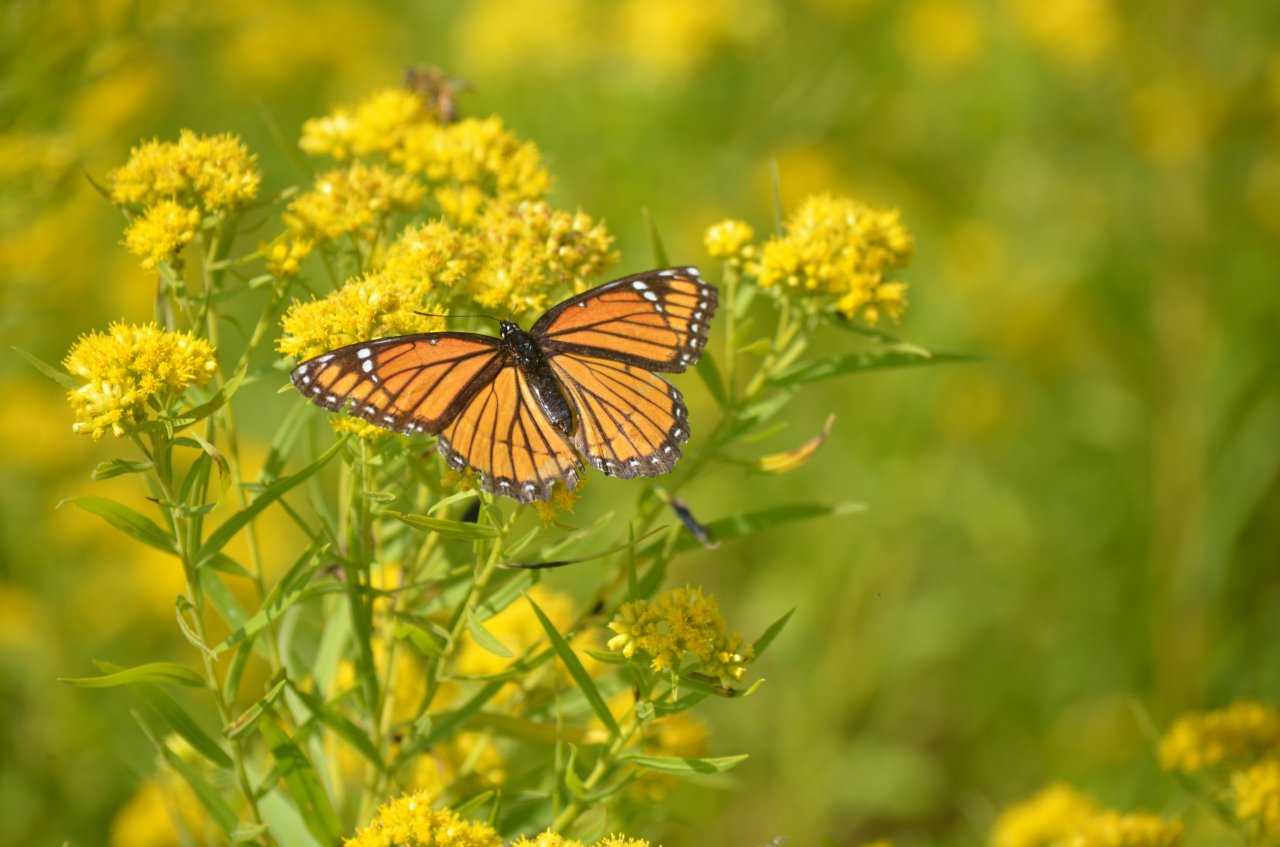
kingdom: Animalia
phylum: Arthropoda
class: Insecta
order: Lepidoptera
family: Nymphalidae
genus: Limenitis
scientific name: Limenitis archippus
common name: Viceroy
